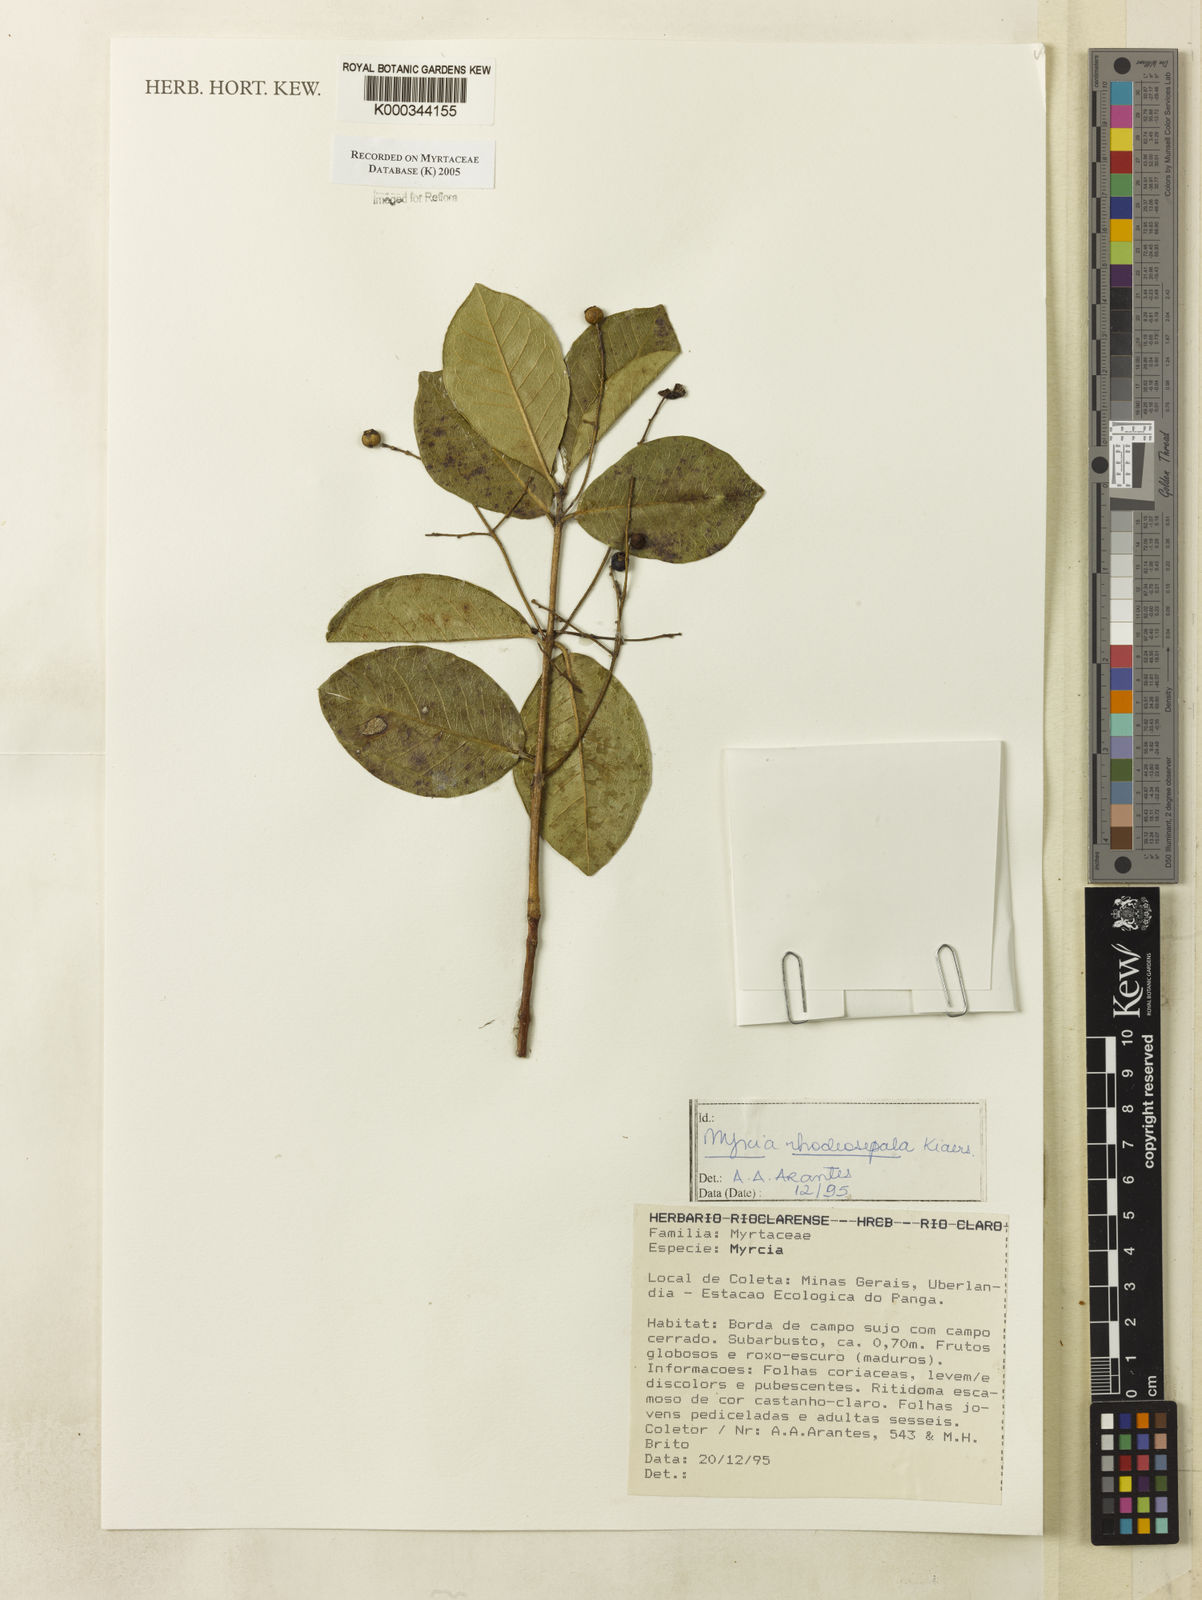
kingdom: Plantae
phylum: Tracheophyta
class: Magnoliopsida
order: Myrtales
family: Myrtaceae
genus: Myrcia
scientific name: Myrcia tomentosa
